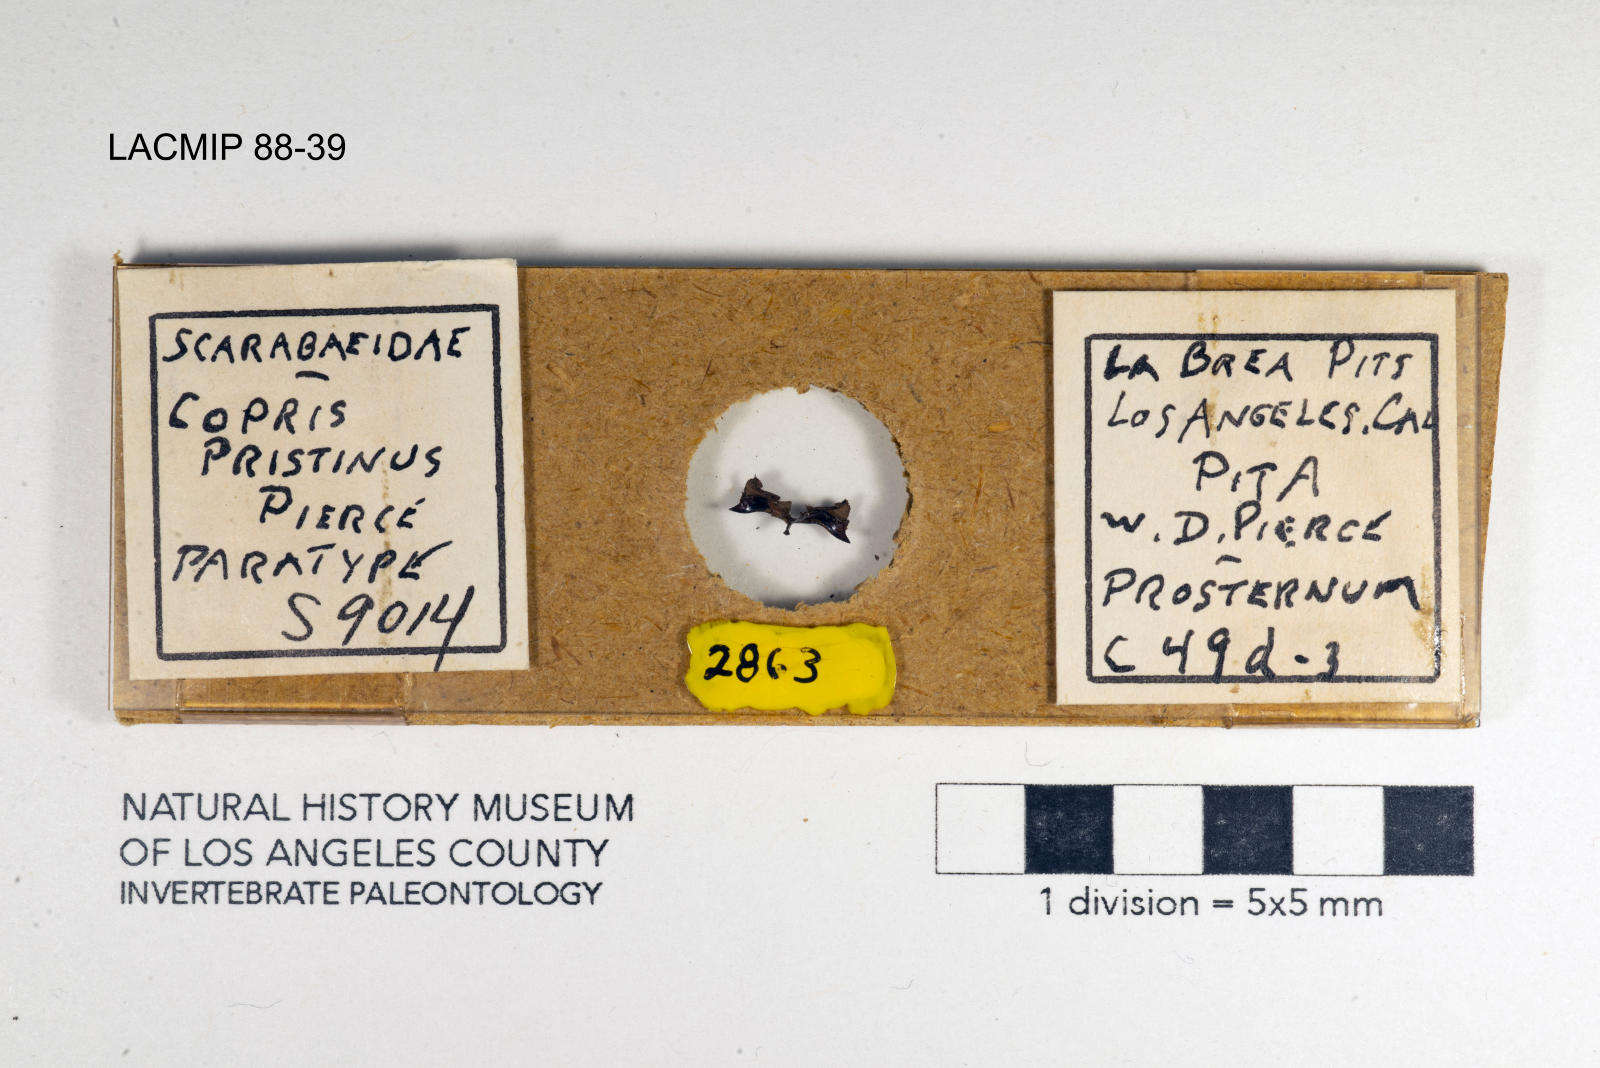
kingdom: Animalia
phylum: Arthropoda
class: Insecta
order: Coleoptera
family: Scarabaeidae
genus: Copris
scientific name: Copris pristinus
